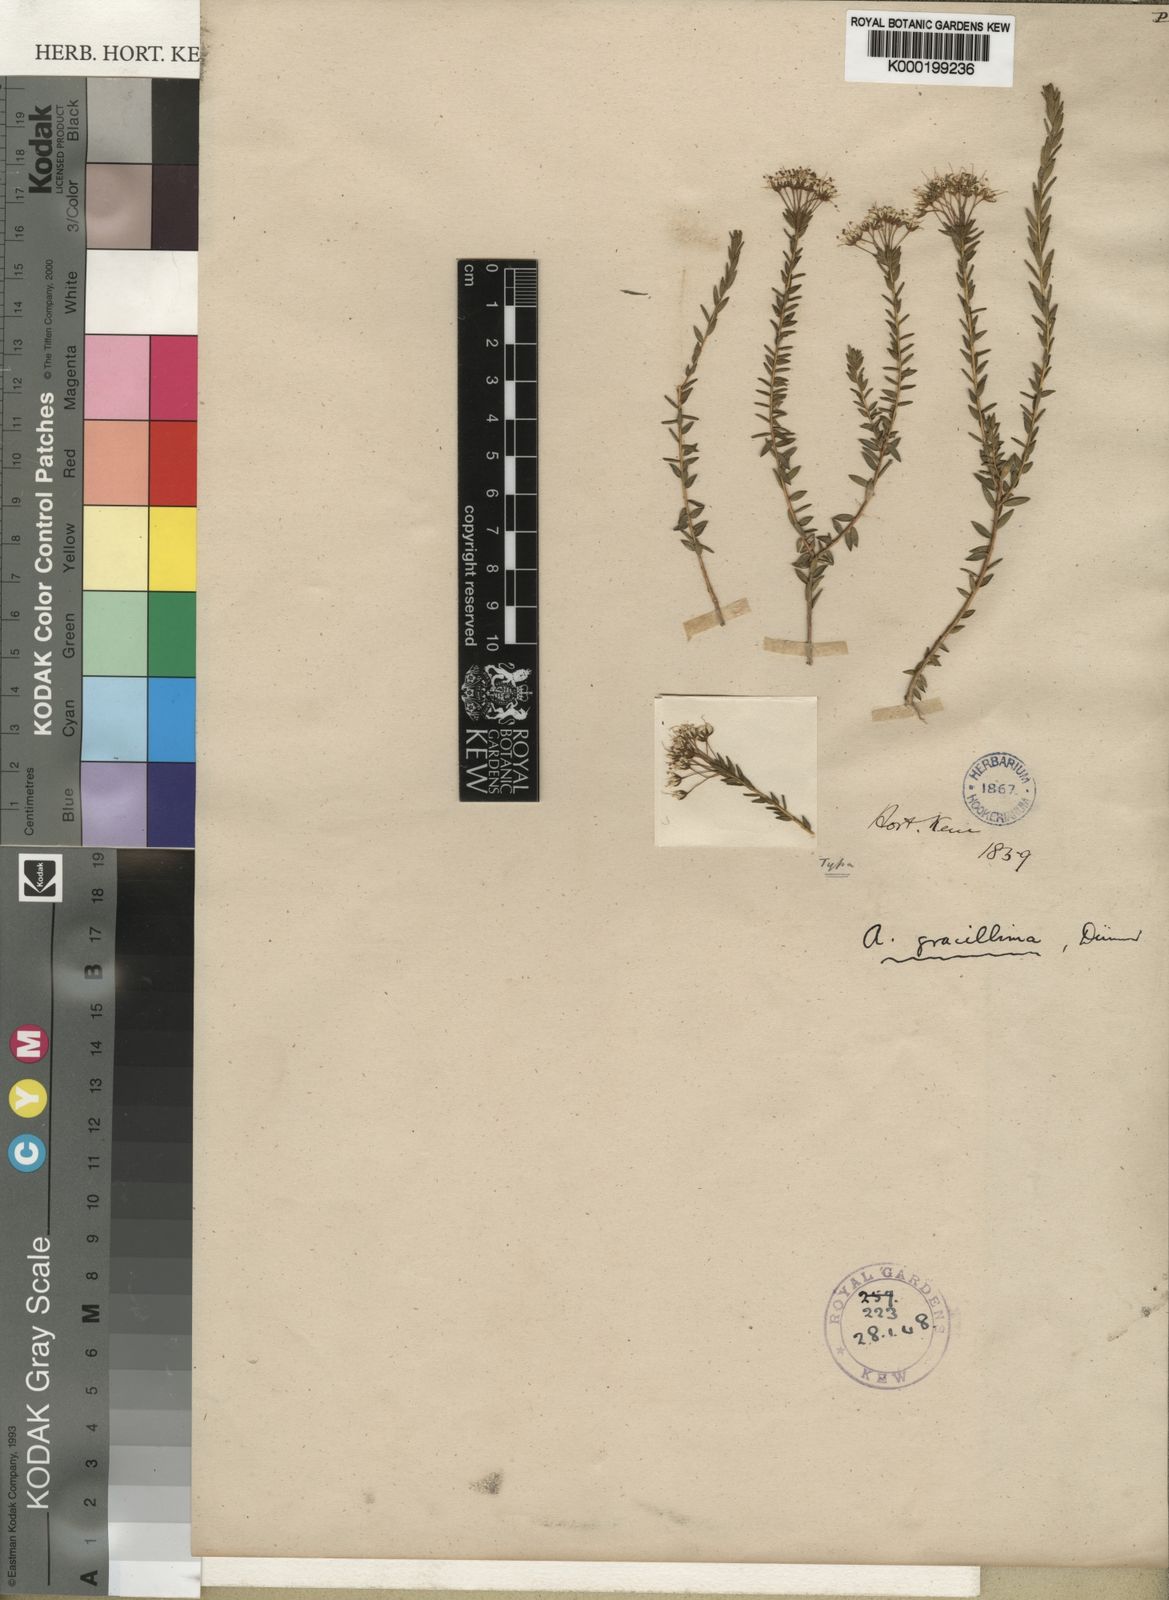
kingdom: Plantae
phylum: Tracheophyta
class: Magnoliopsida
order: Sapindales
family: Rutaceae
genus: Agathosma
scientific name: Agathosma bifida
